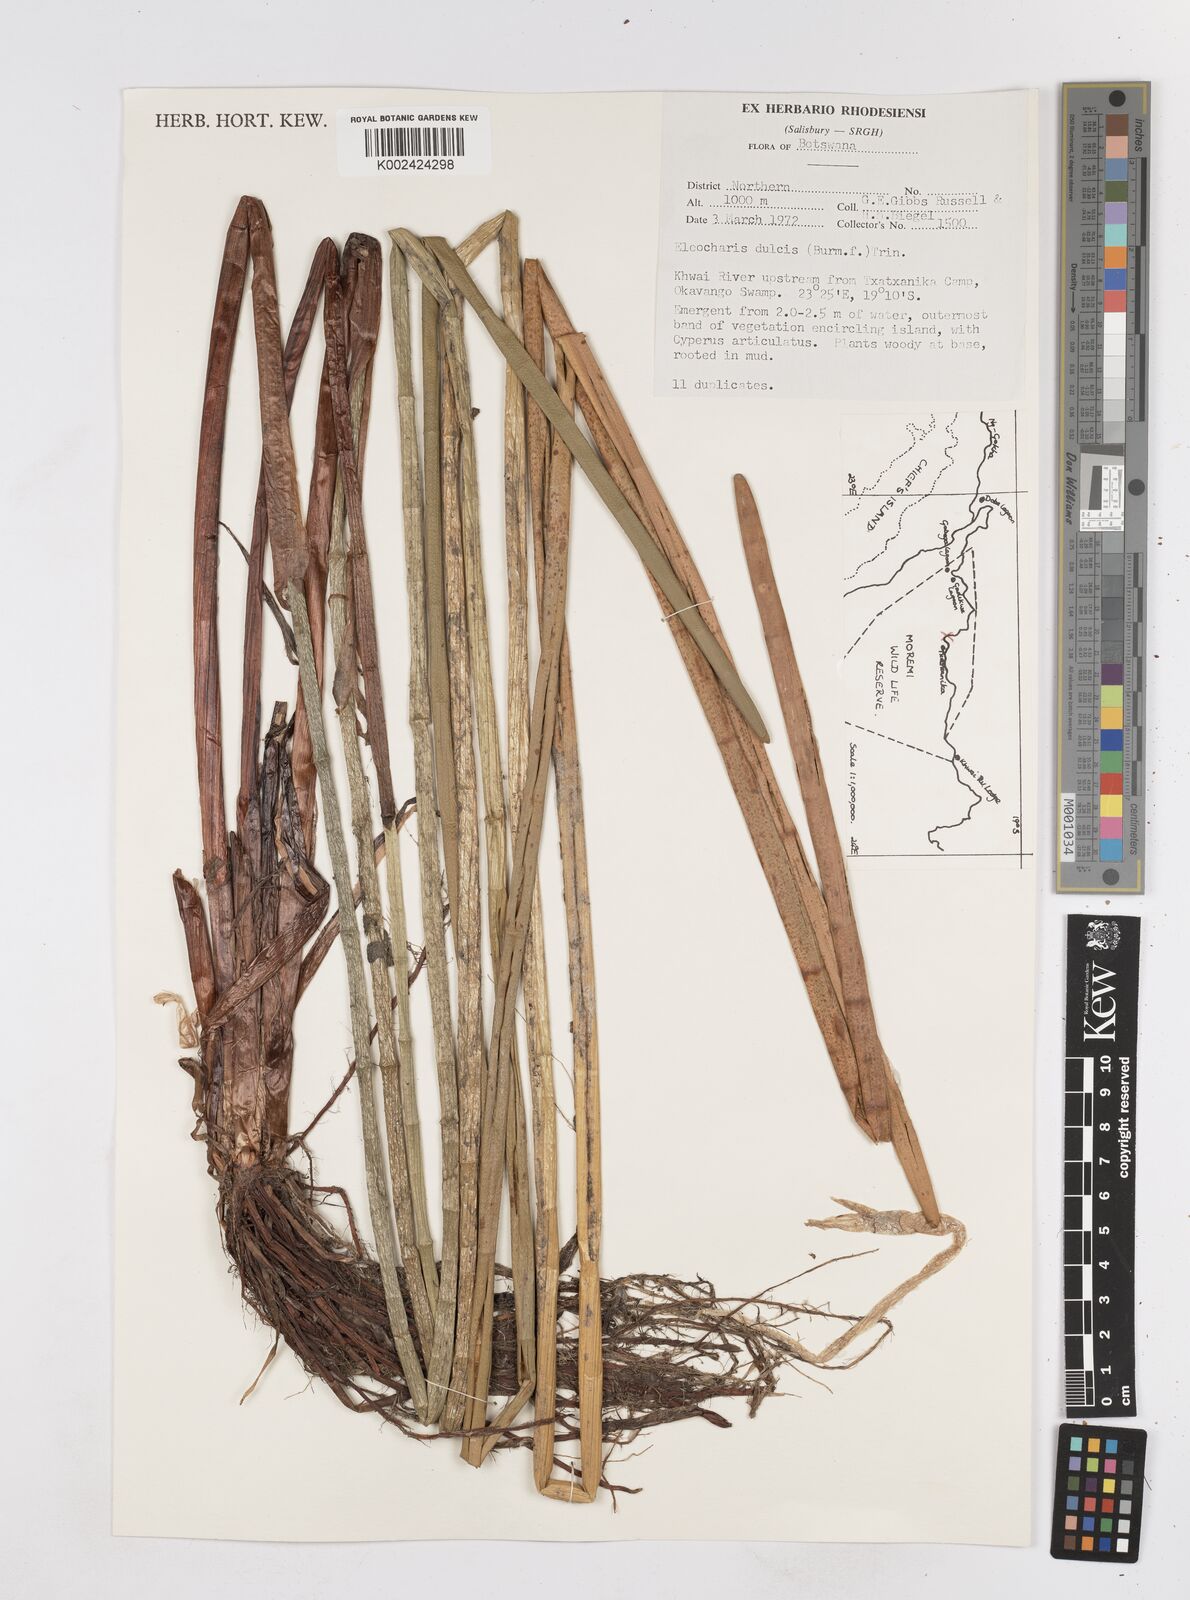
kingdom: Plantae
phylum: Tracheophyta
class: Liliopsida
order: Poales
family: Cyperaceae
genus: Eleocharis
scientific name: Eleocharis dulcis
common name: Chinese water chestnut
